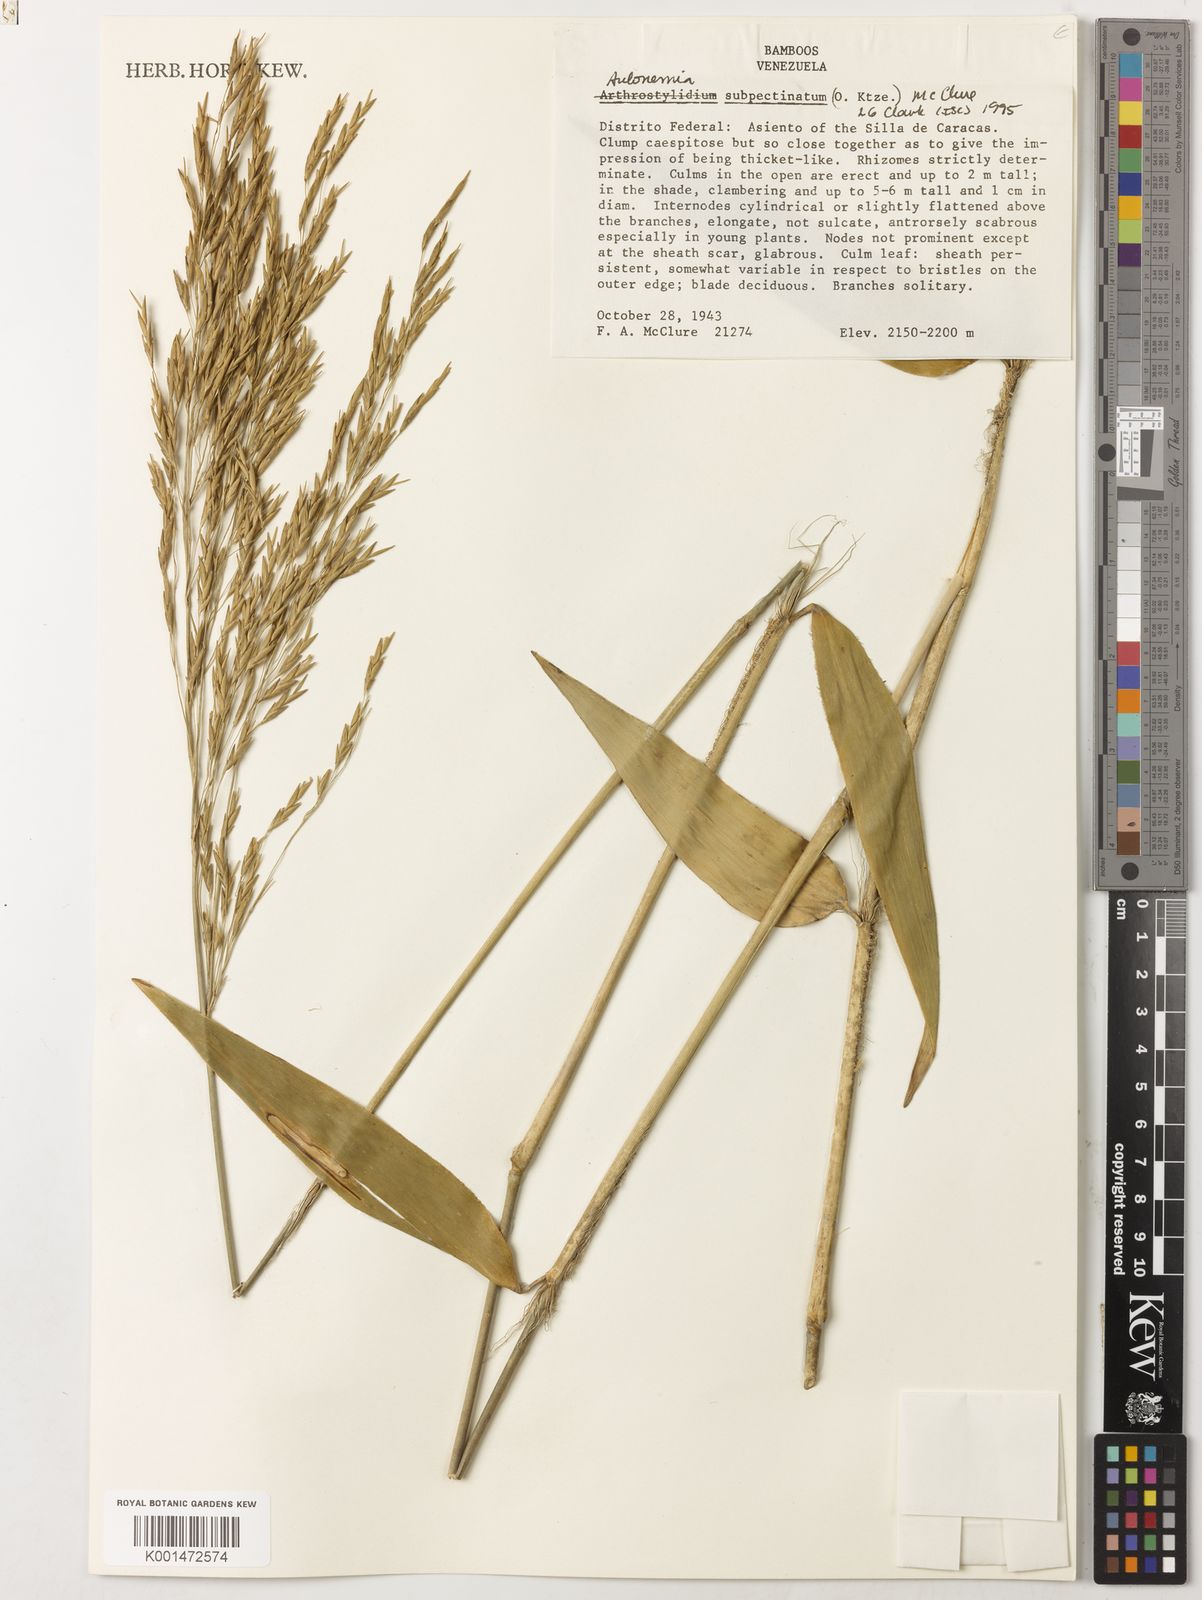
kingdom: Plantae
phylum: Tracheophyta
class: Liliopsida
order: Poales
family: Poaceae
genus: Aulonemia
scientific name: Aulonemia subpectinata
